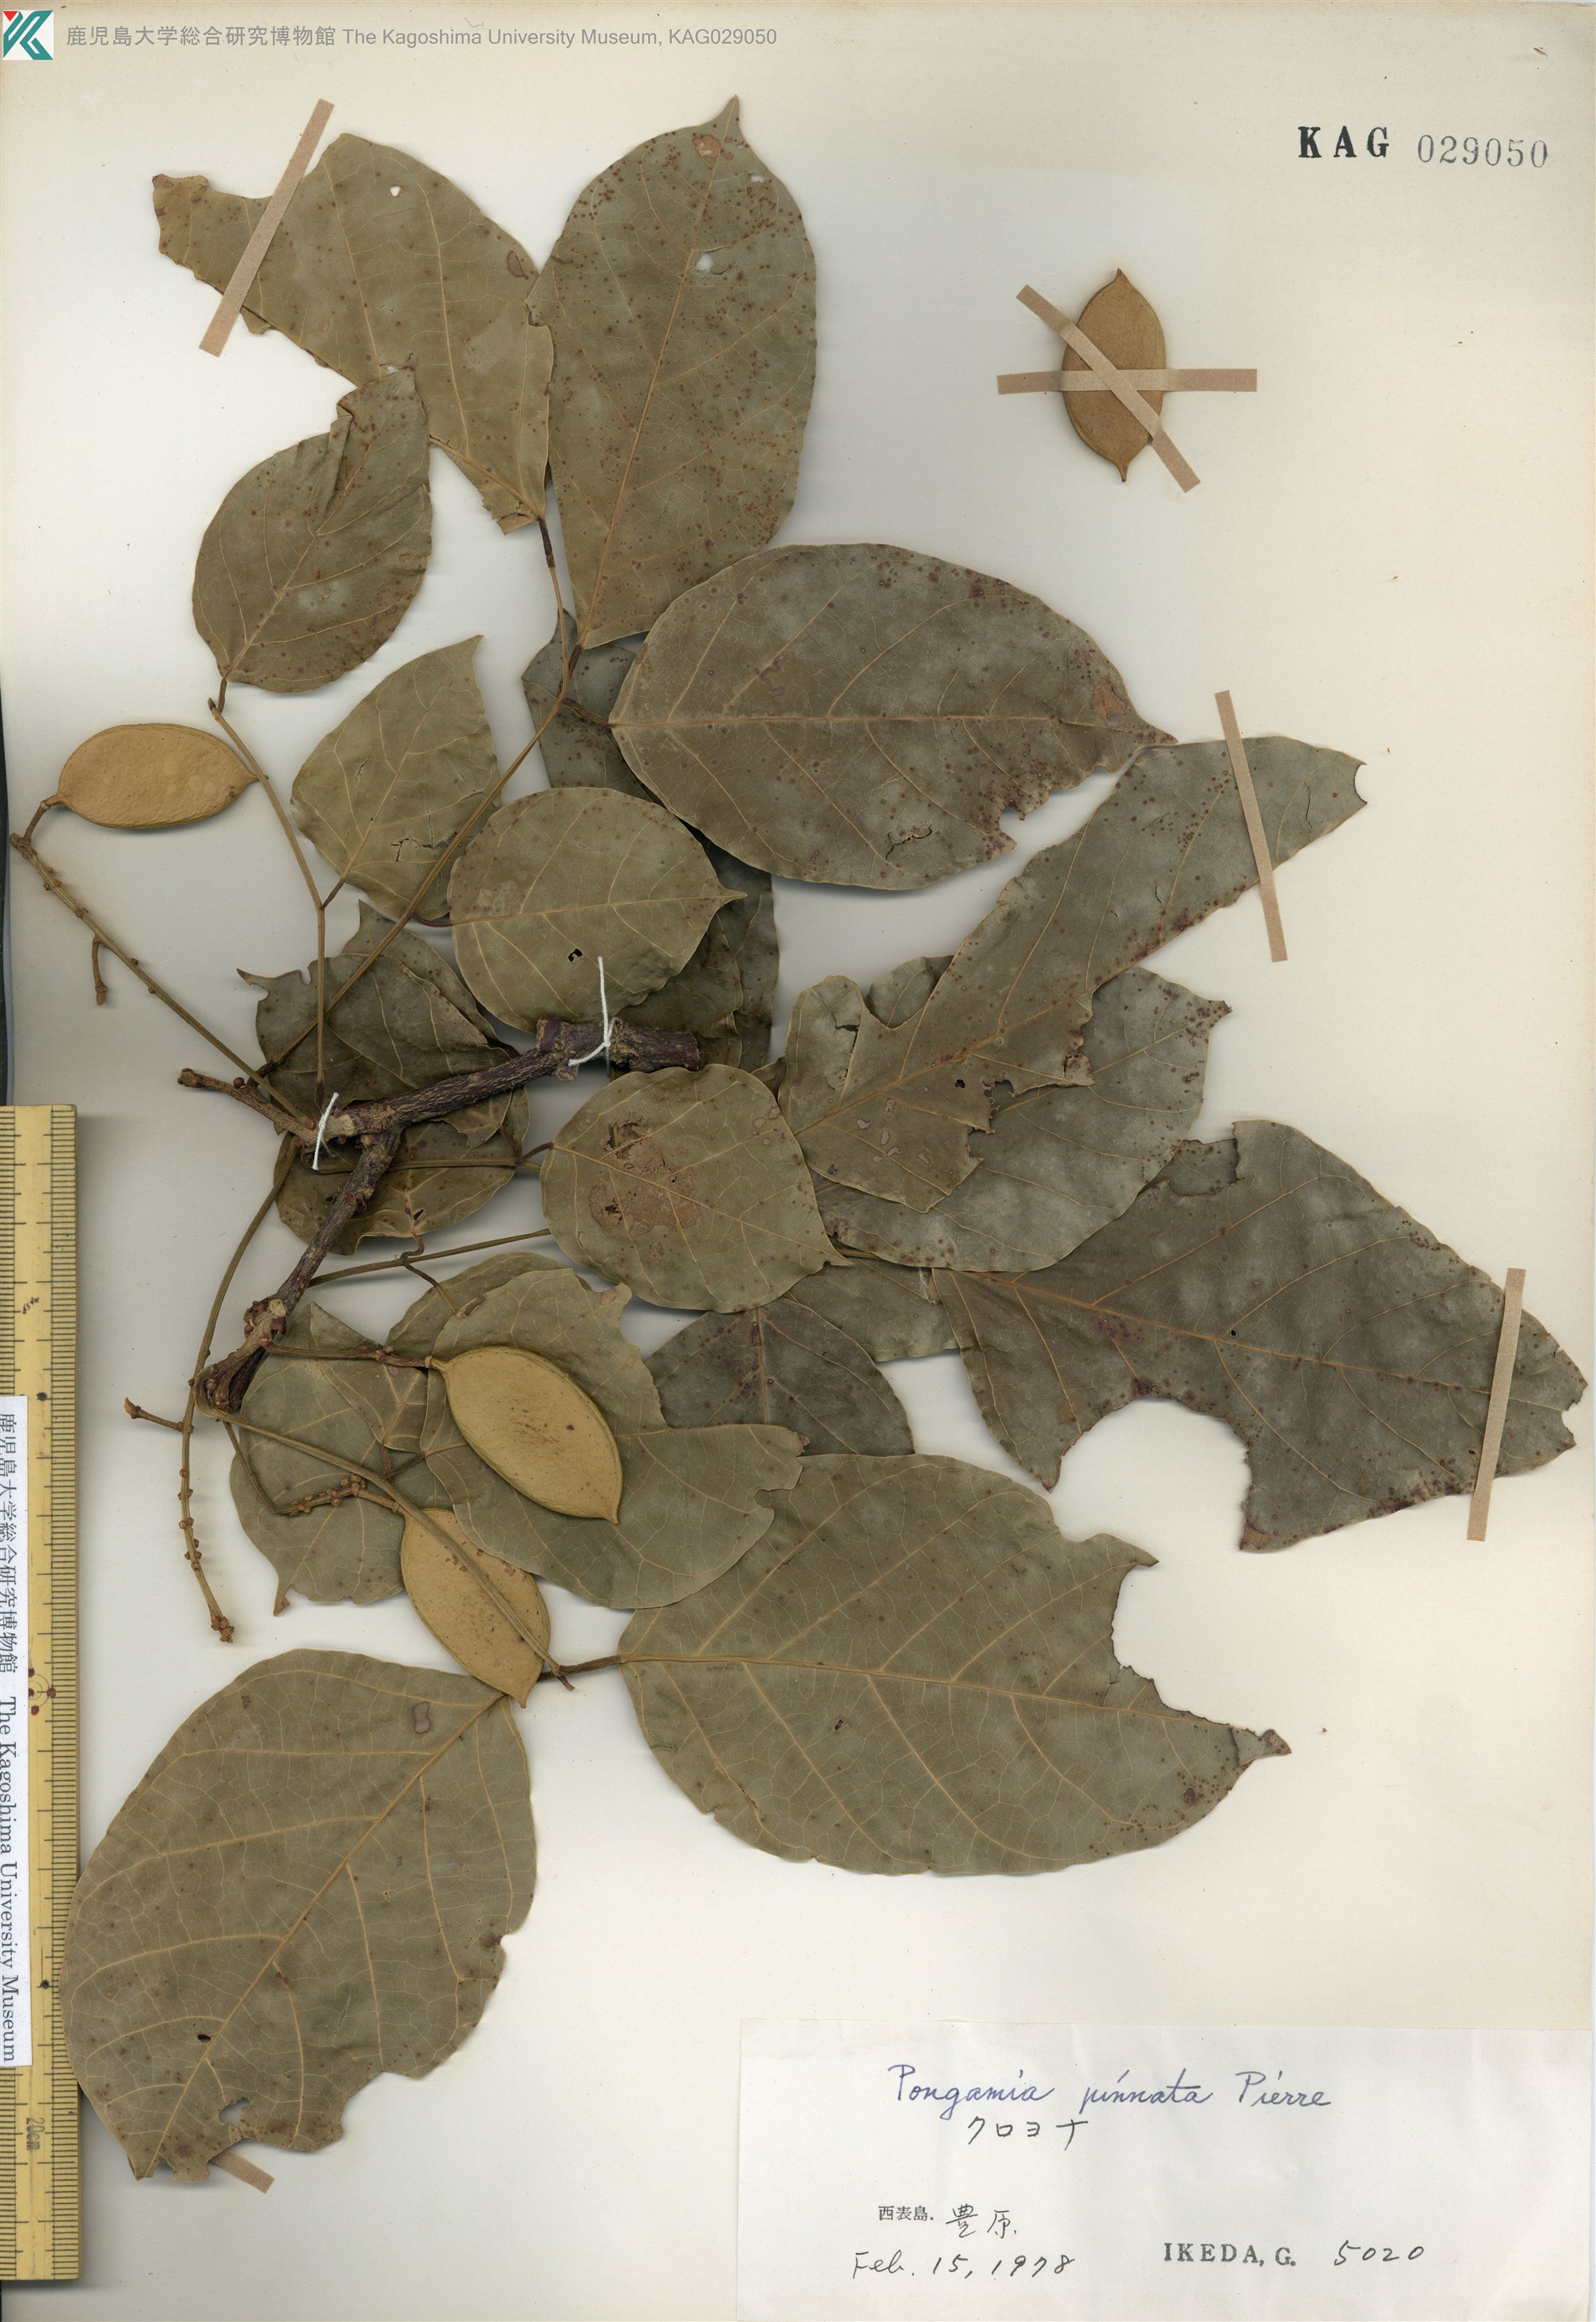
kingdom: Plantae
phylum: Tracheophyta
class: Magnoliopsida
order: Fabales
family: Fabaceae
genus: Pongamia
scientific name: Pongamia pinnata
